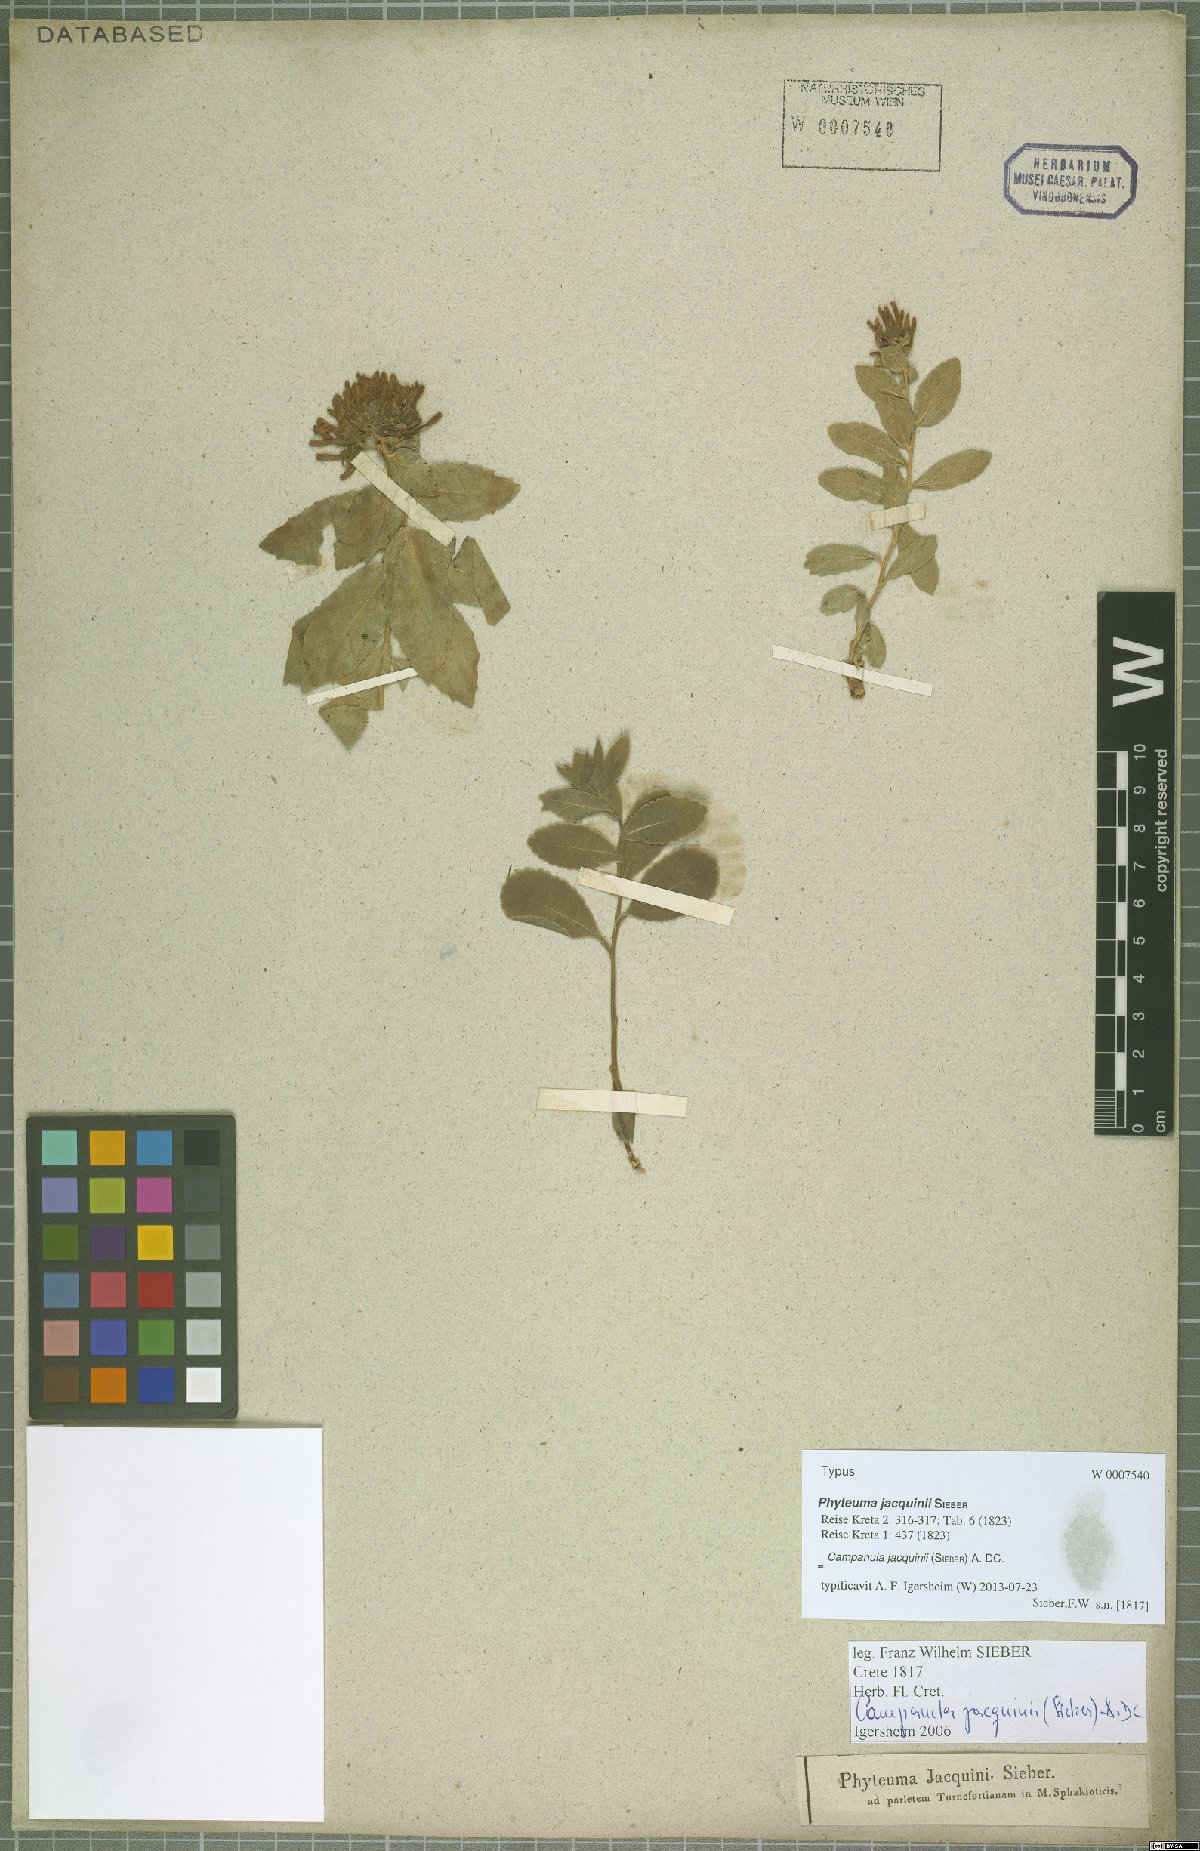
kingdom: Plantae
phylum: Tracheophyta
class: Magnoliopsida
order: Asterales
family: Campanulaceae
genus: Campanula
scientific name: Campanula jacquinii
